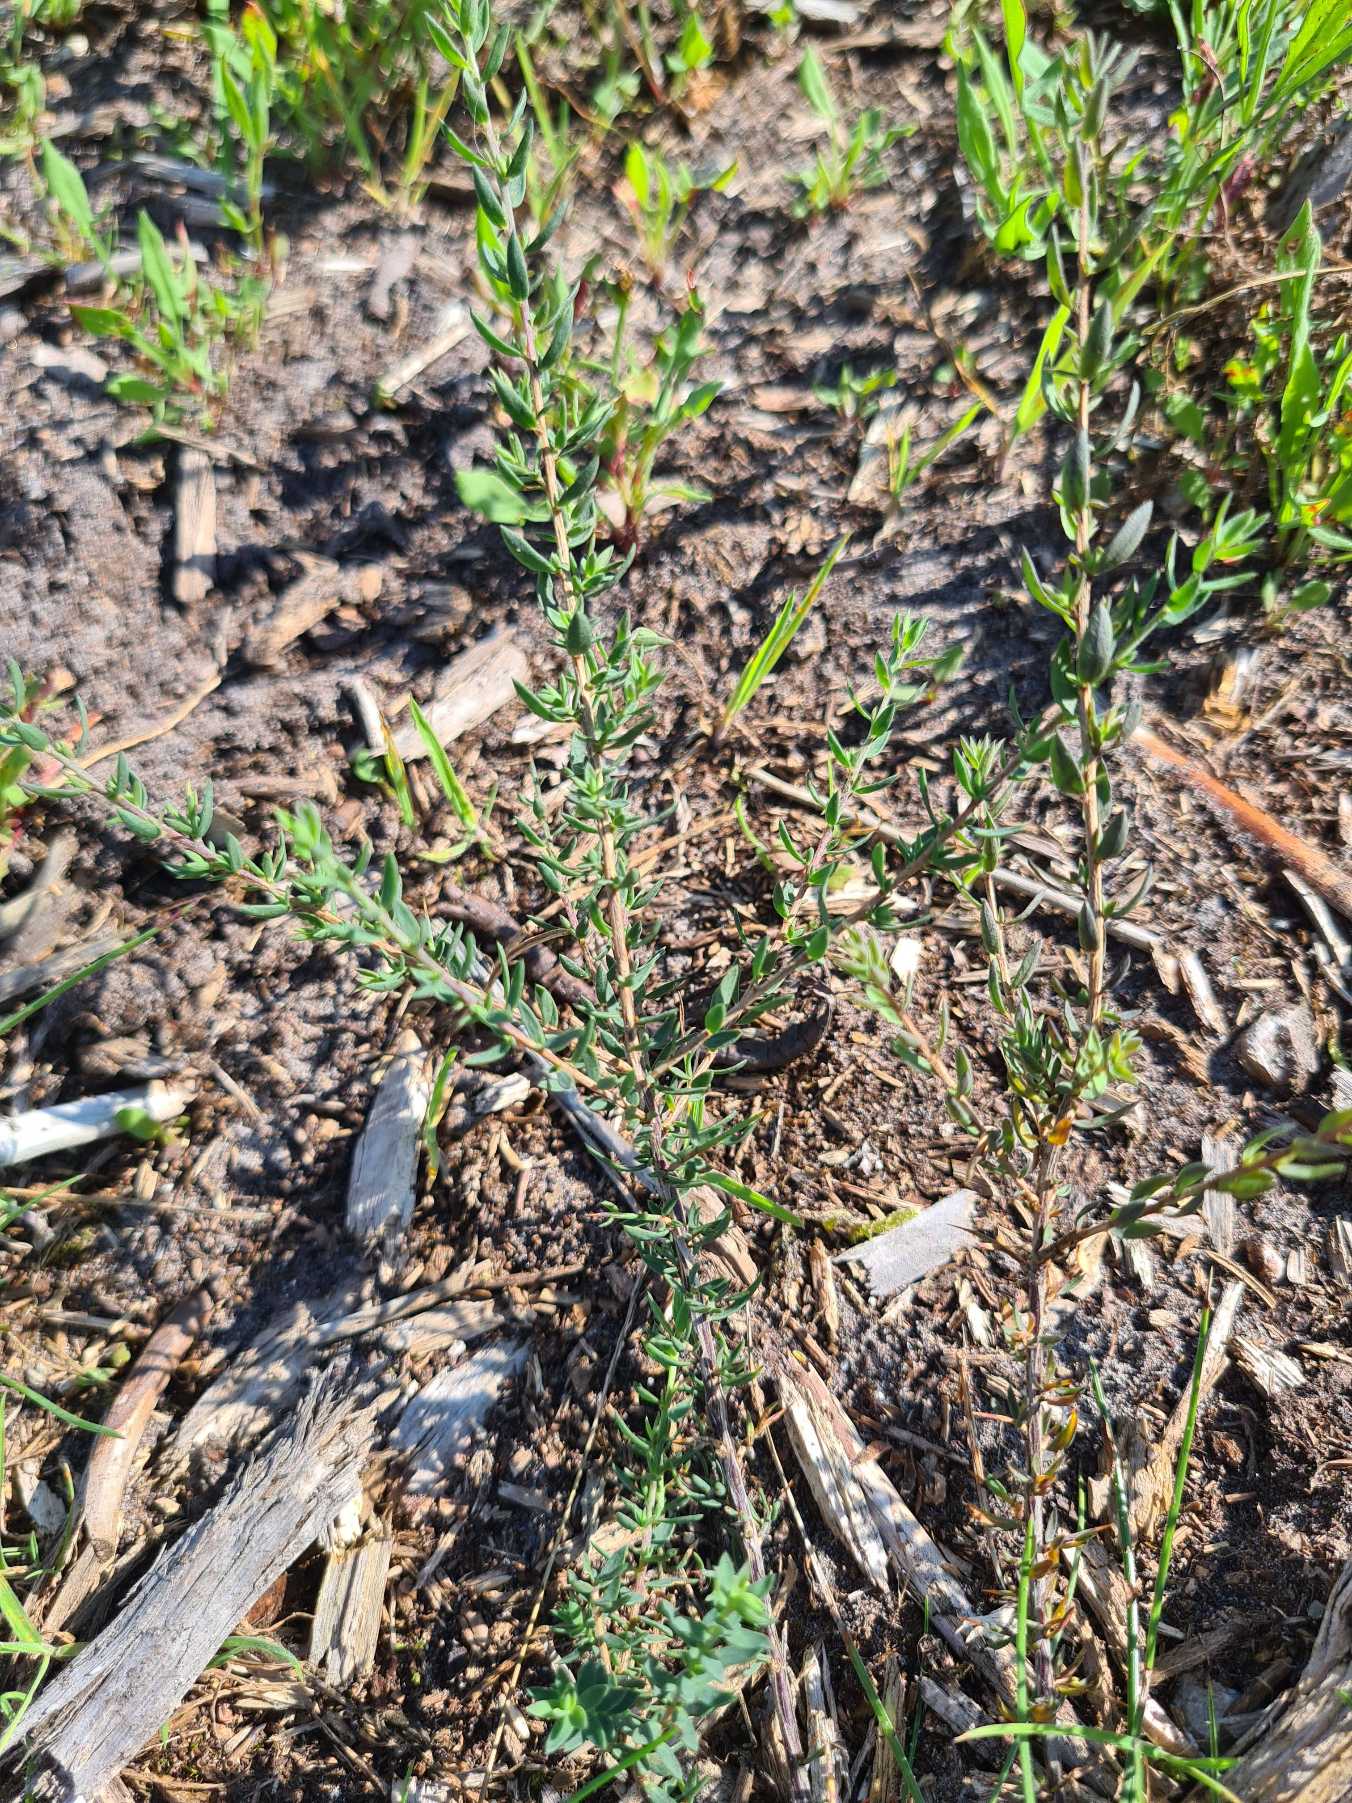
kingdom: Plantae
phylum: Tracheophyta
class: Magnoliopsida
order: Fabales
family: Fabaceae
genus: Genista
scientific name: Genista anglica
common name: Engelsk visse
